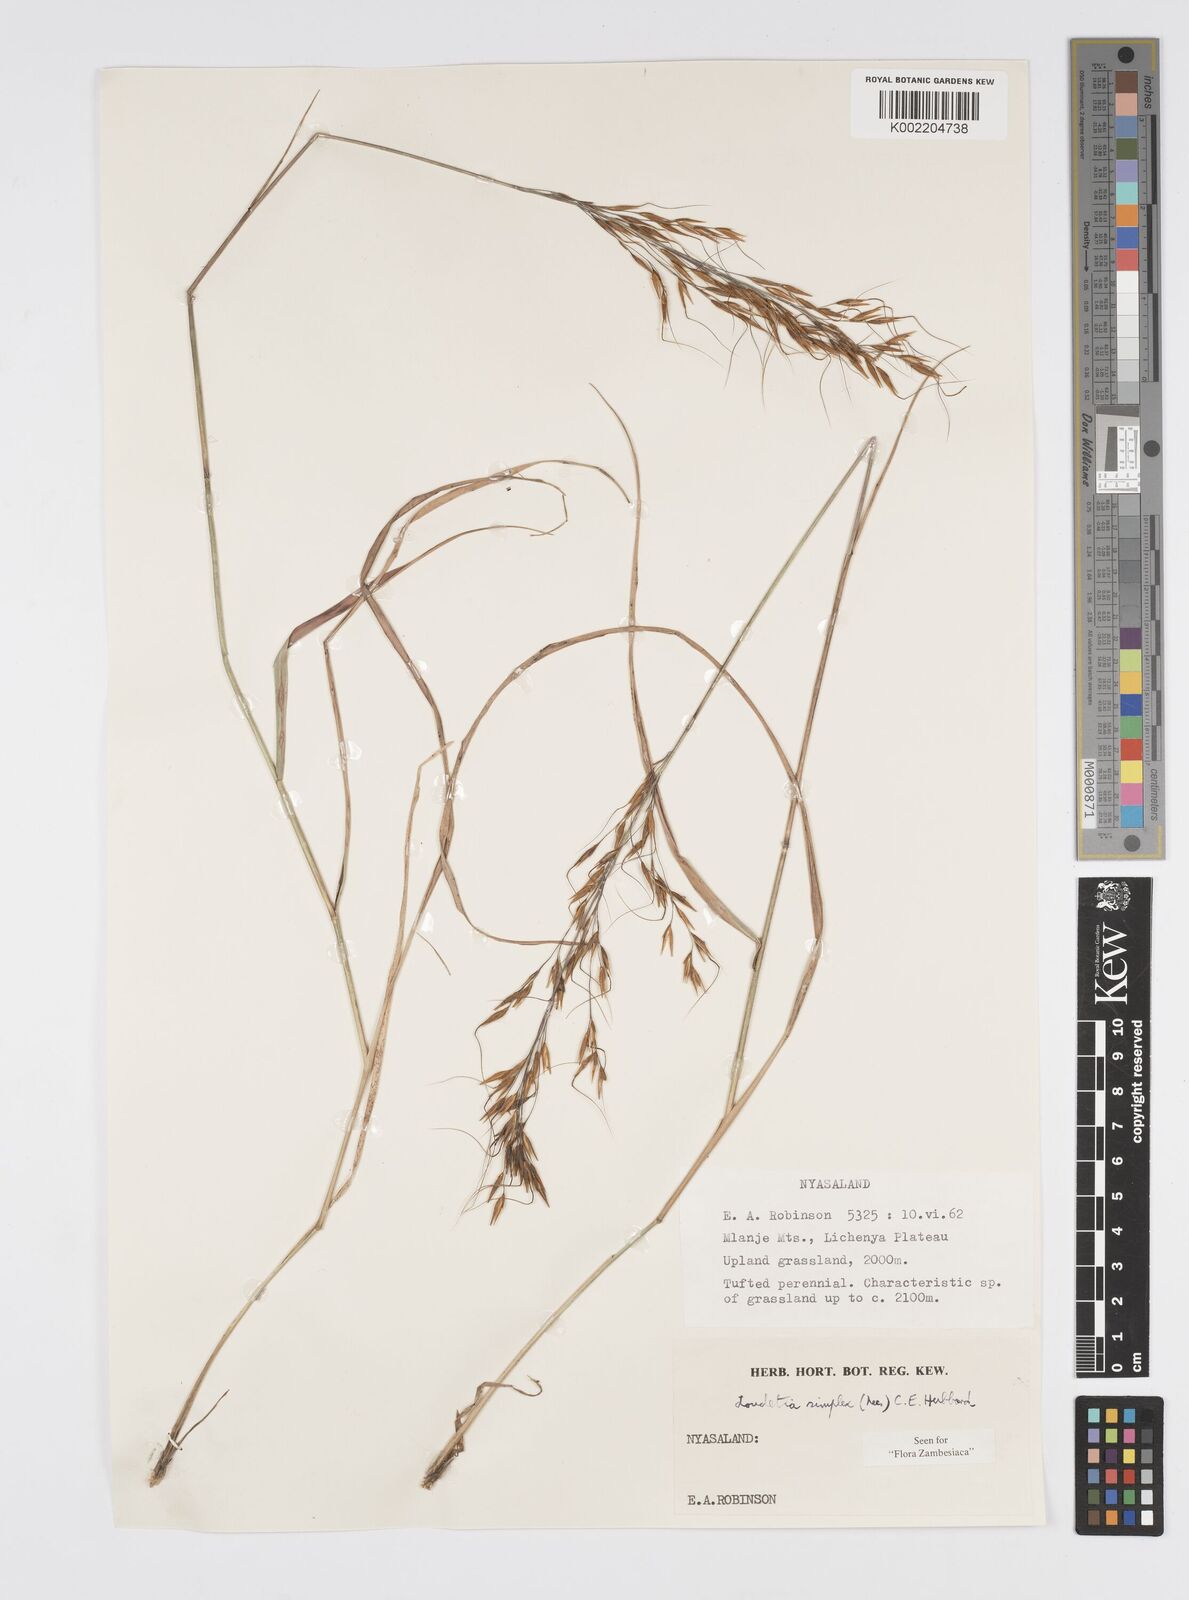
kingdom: Plantae
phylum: Tracheophyta
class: Liliopsida
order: Poales
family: Poaceae
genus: Loudetia
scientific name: Loudetia simplex
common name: Common russet grass
